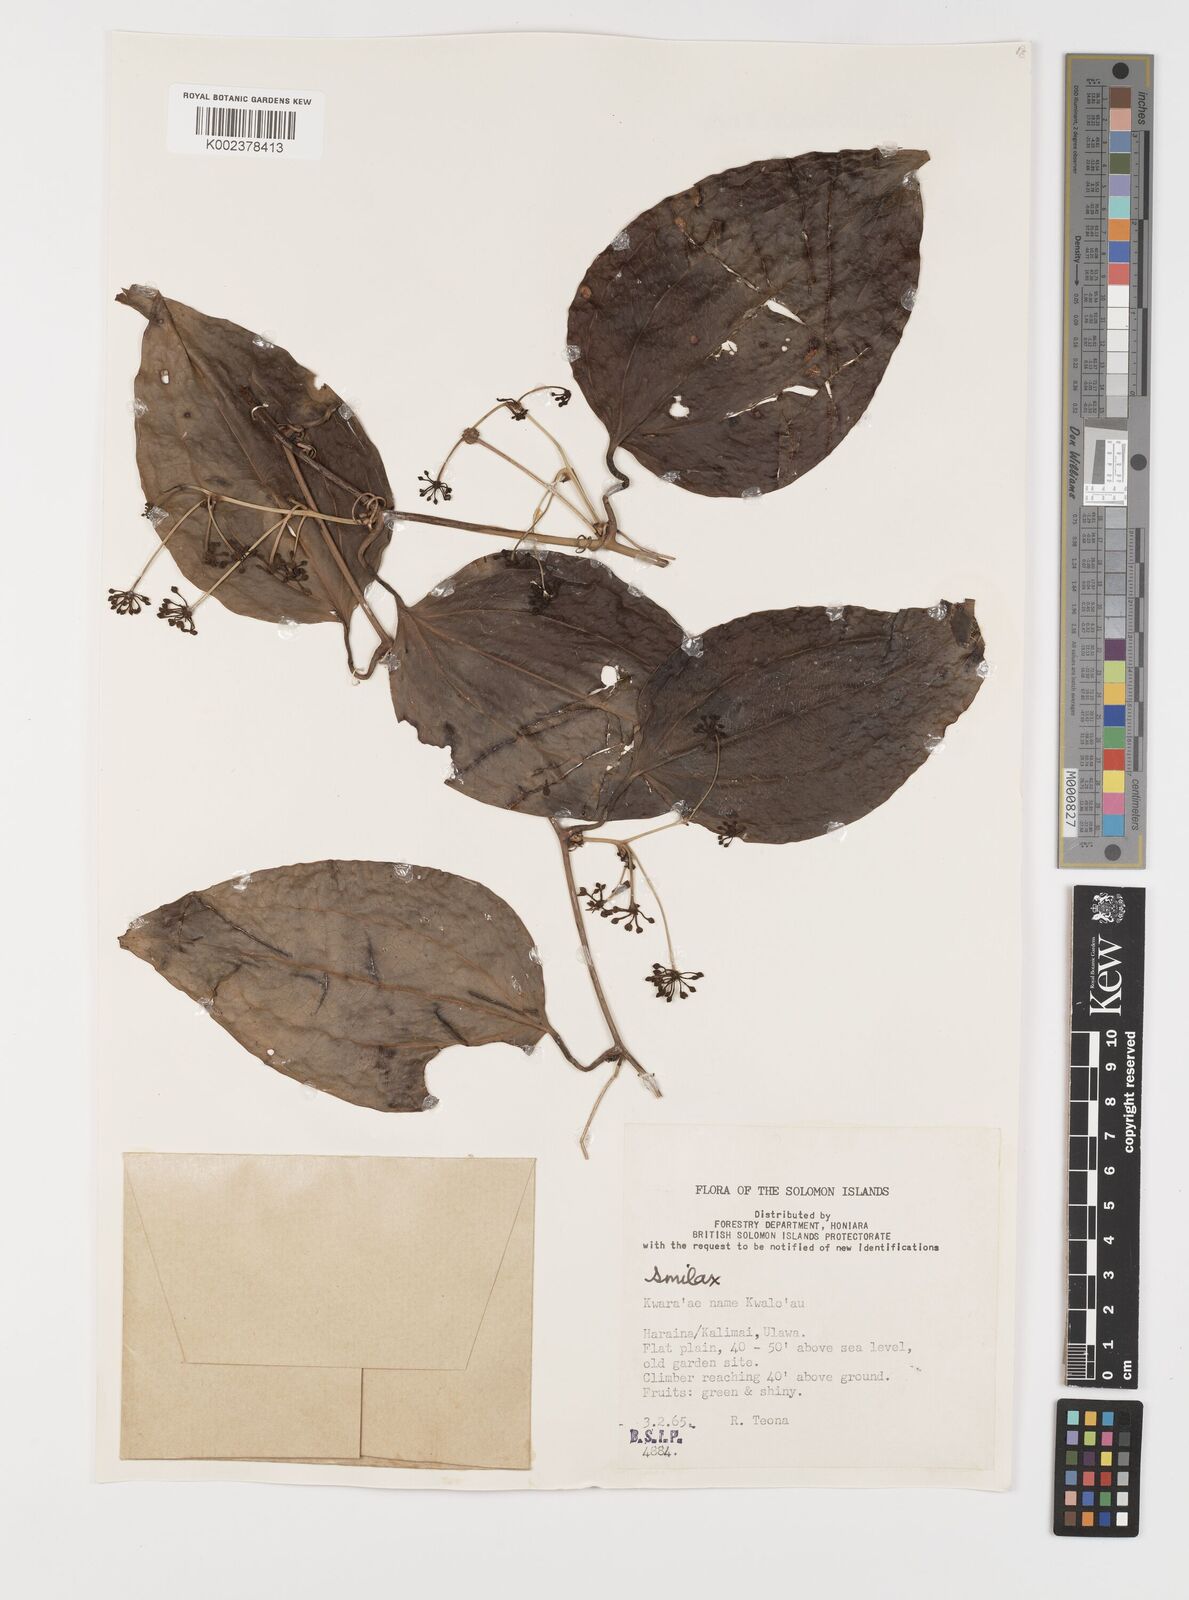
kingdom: Plantae
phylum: Tracheophyta
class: Liliopsida
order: Liliales
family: Smilacaceae
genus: Smilax
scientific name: Smilax
